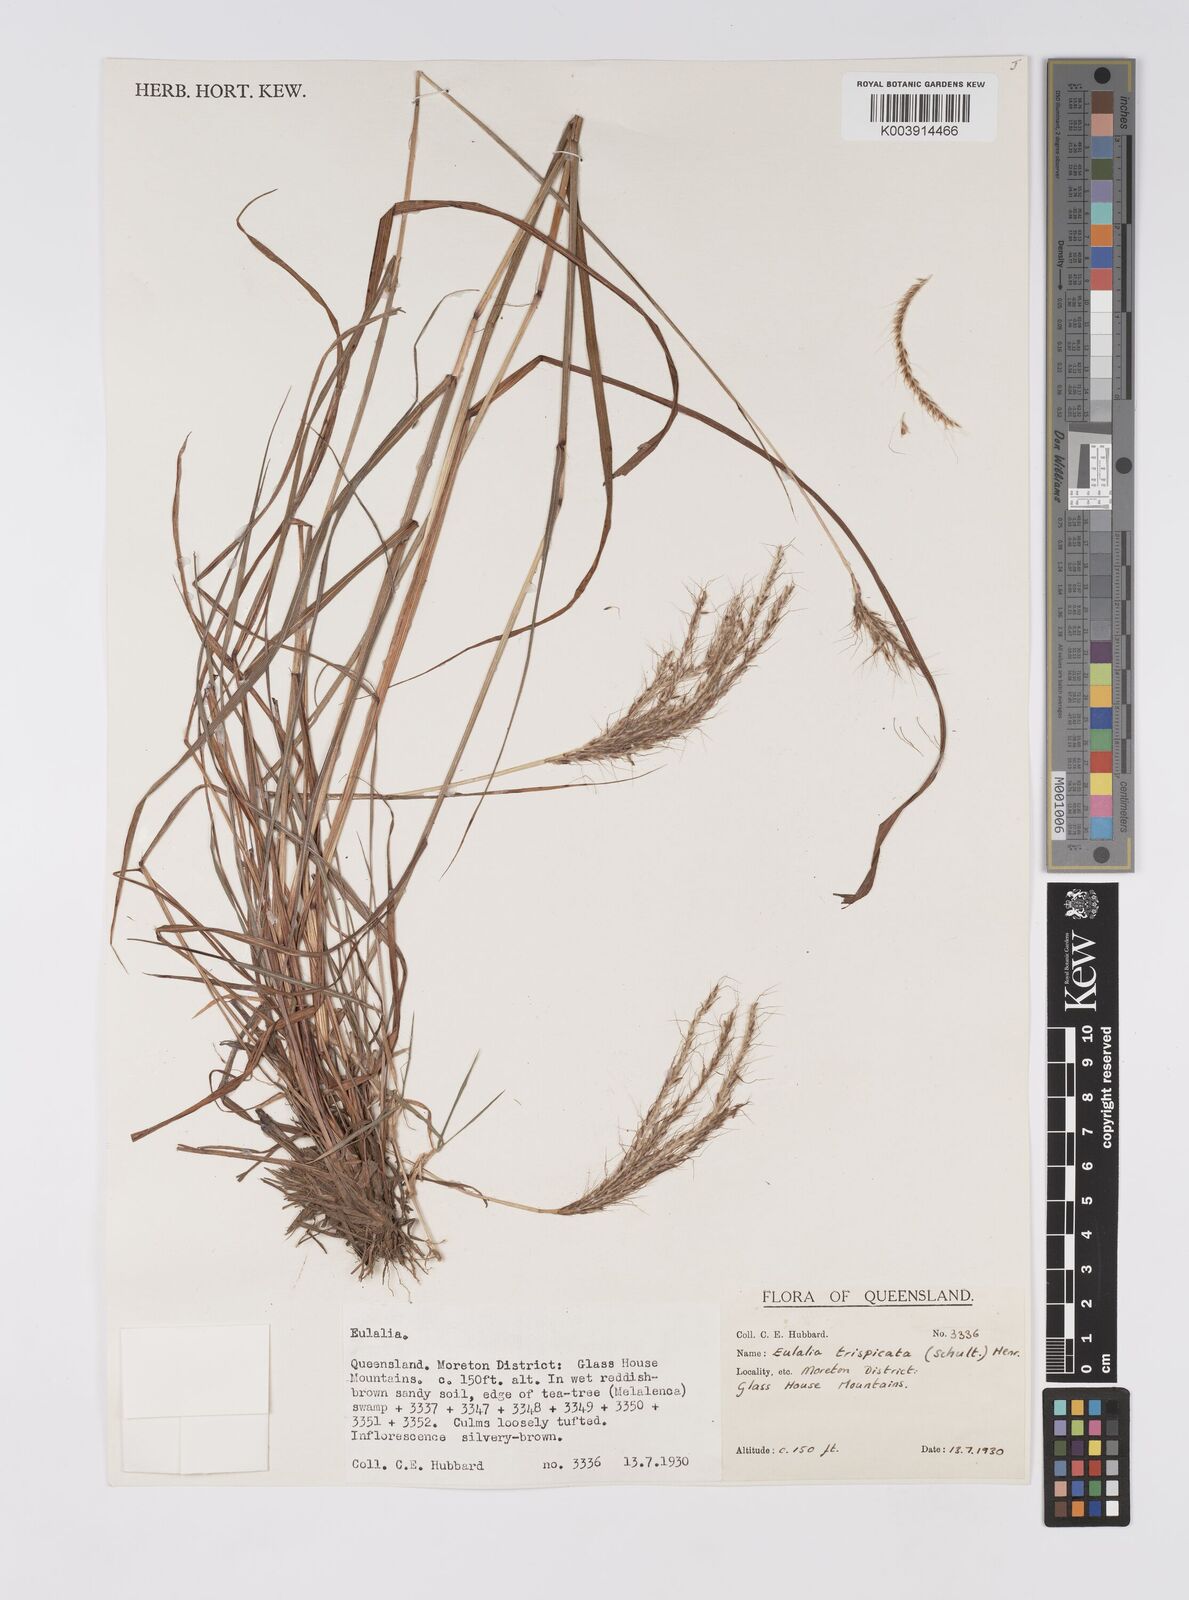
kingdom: Plantae
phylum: Tracheophyta
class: Liliopsida
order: Poales
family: Poaceae
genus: Pseudopogonatherum
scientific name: Pseudopogonatherum trispicatum
